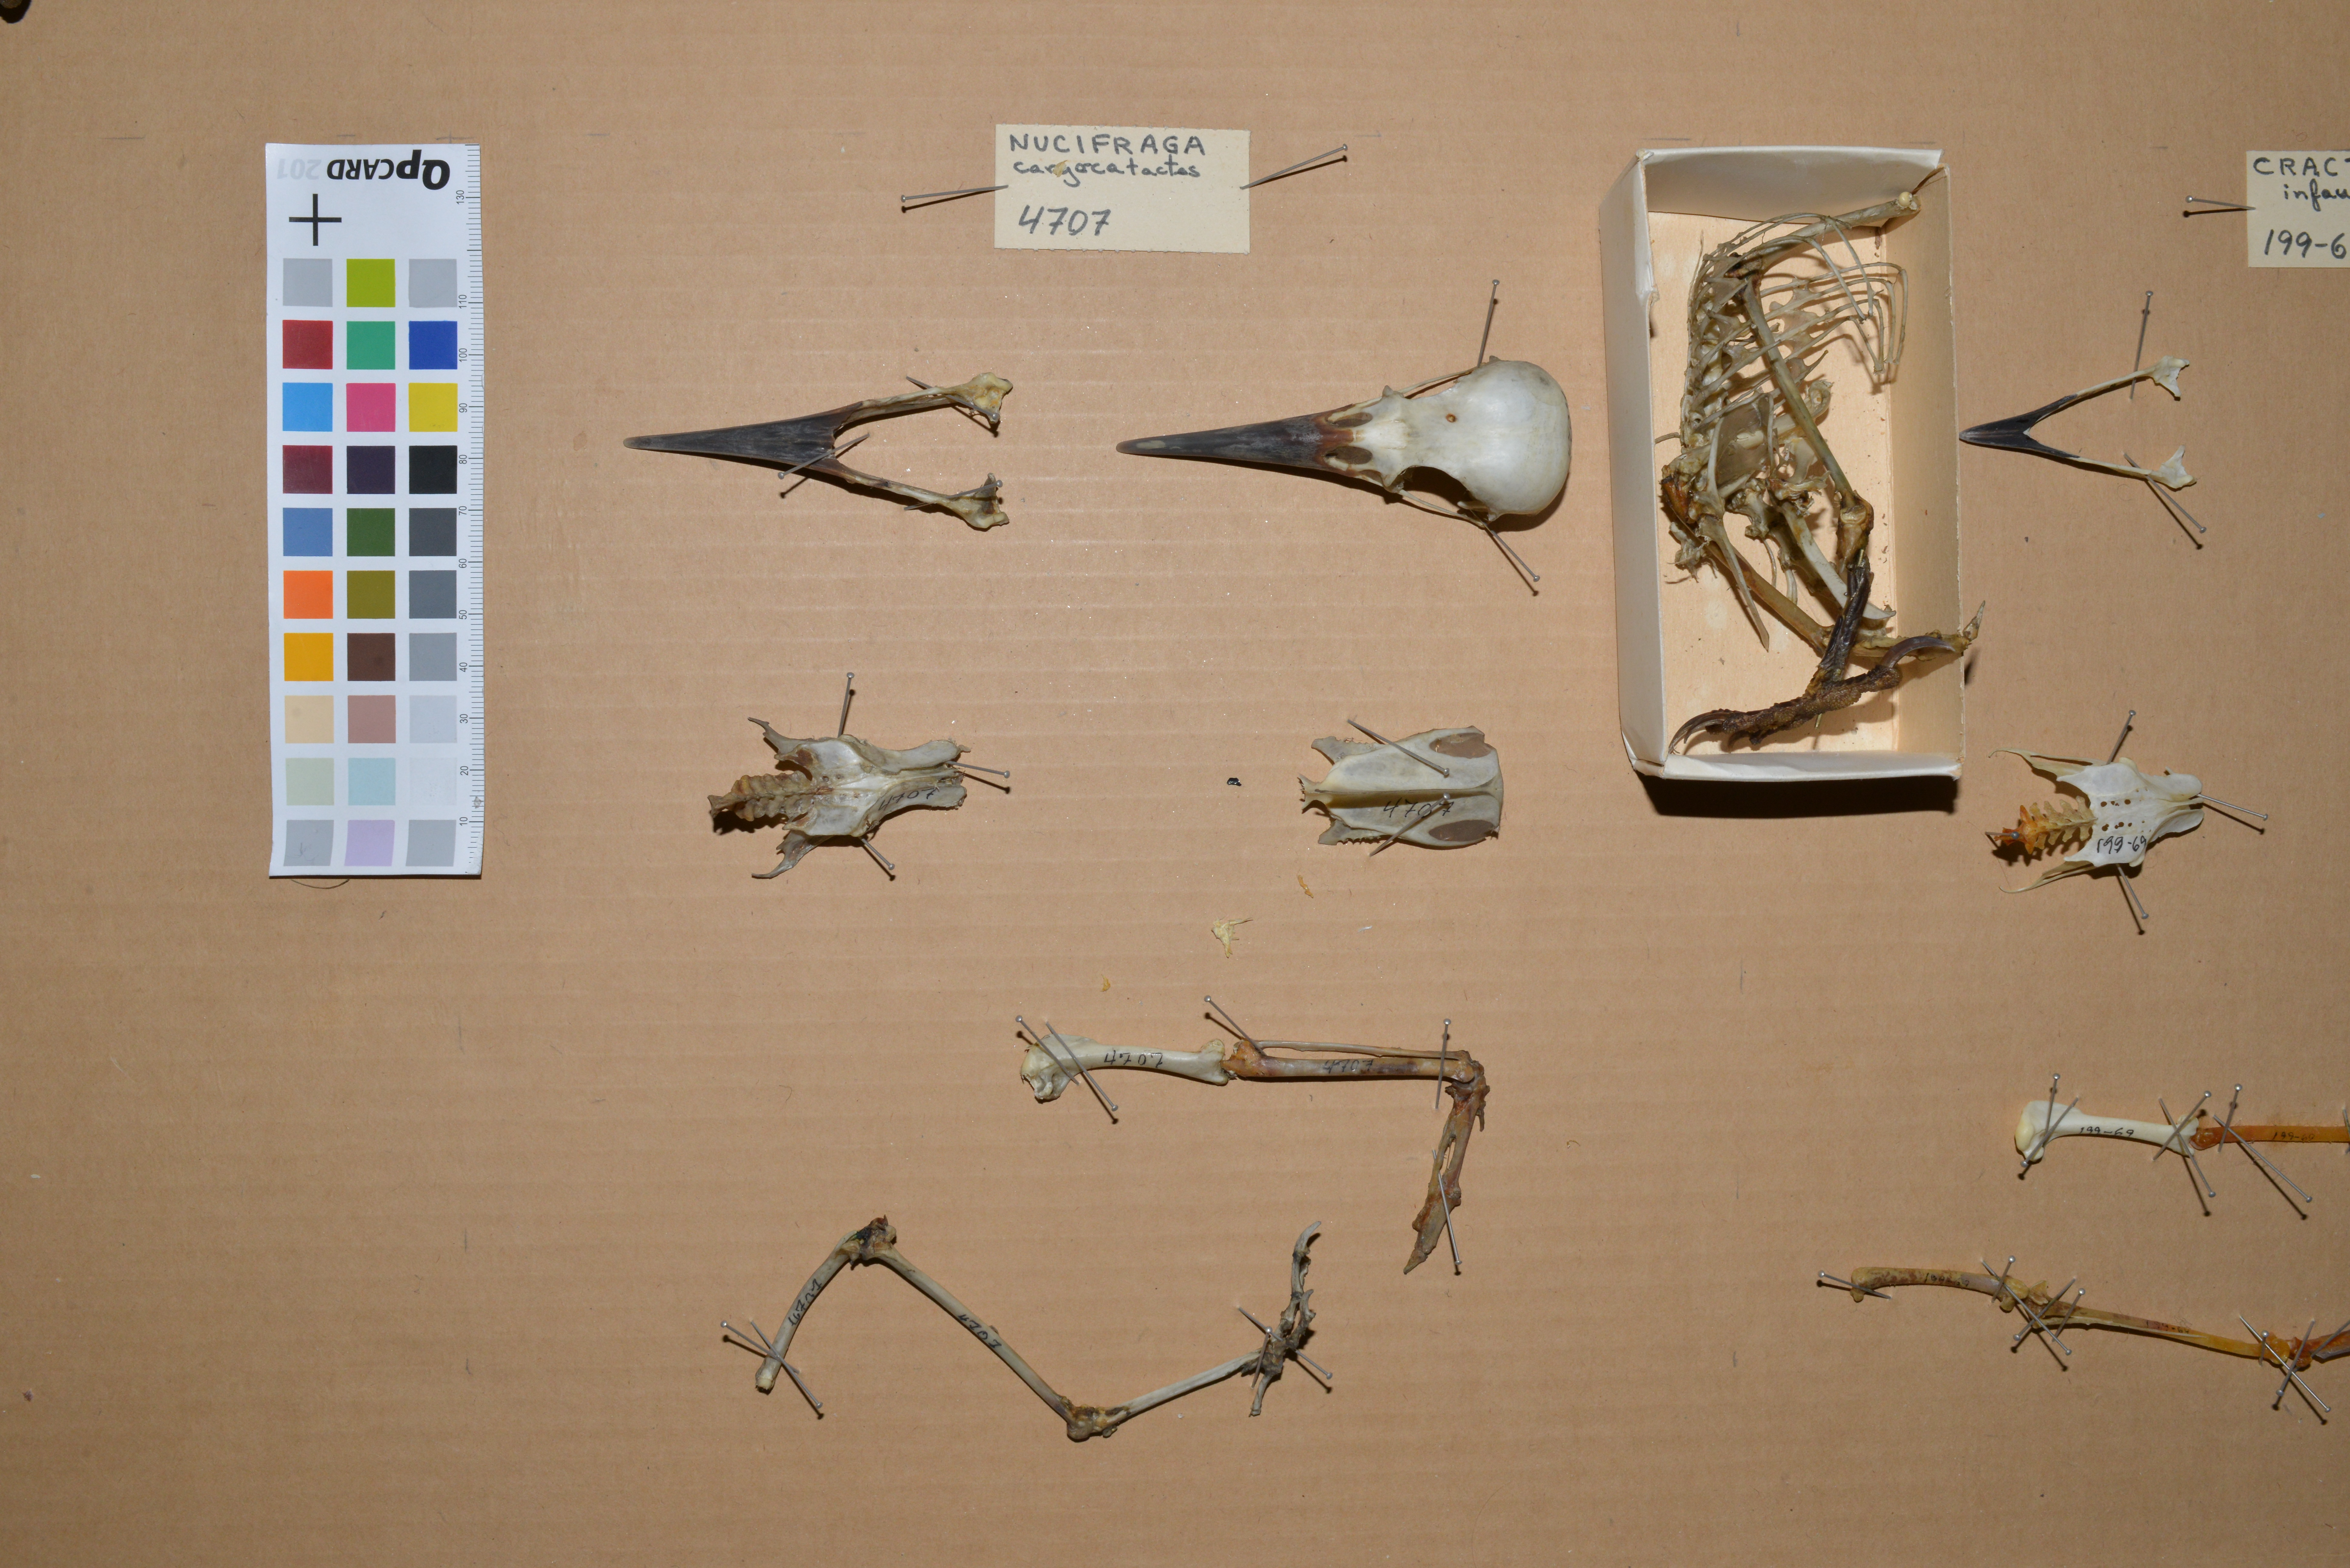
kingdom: Animalia
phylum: Chordata
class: Aves
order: Passeriformes
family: Corvidae
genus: Nucifraga
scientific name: Nucifraga caryocatactes
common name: Spotted nutcracker
